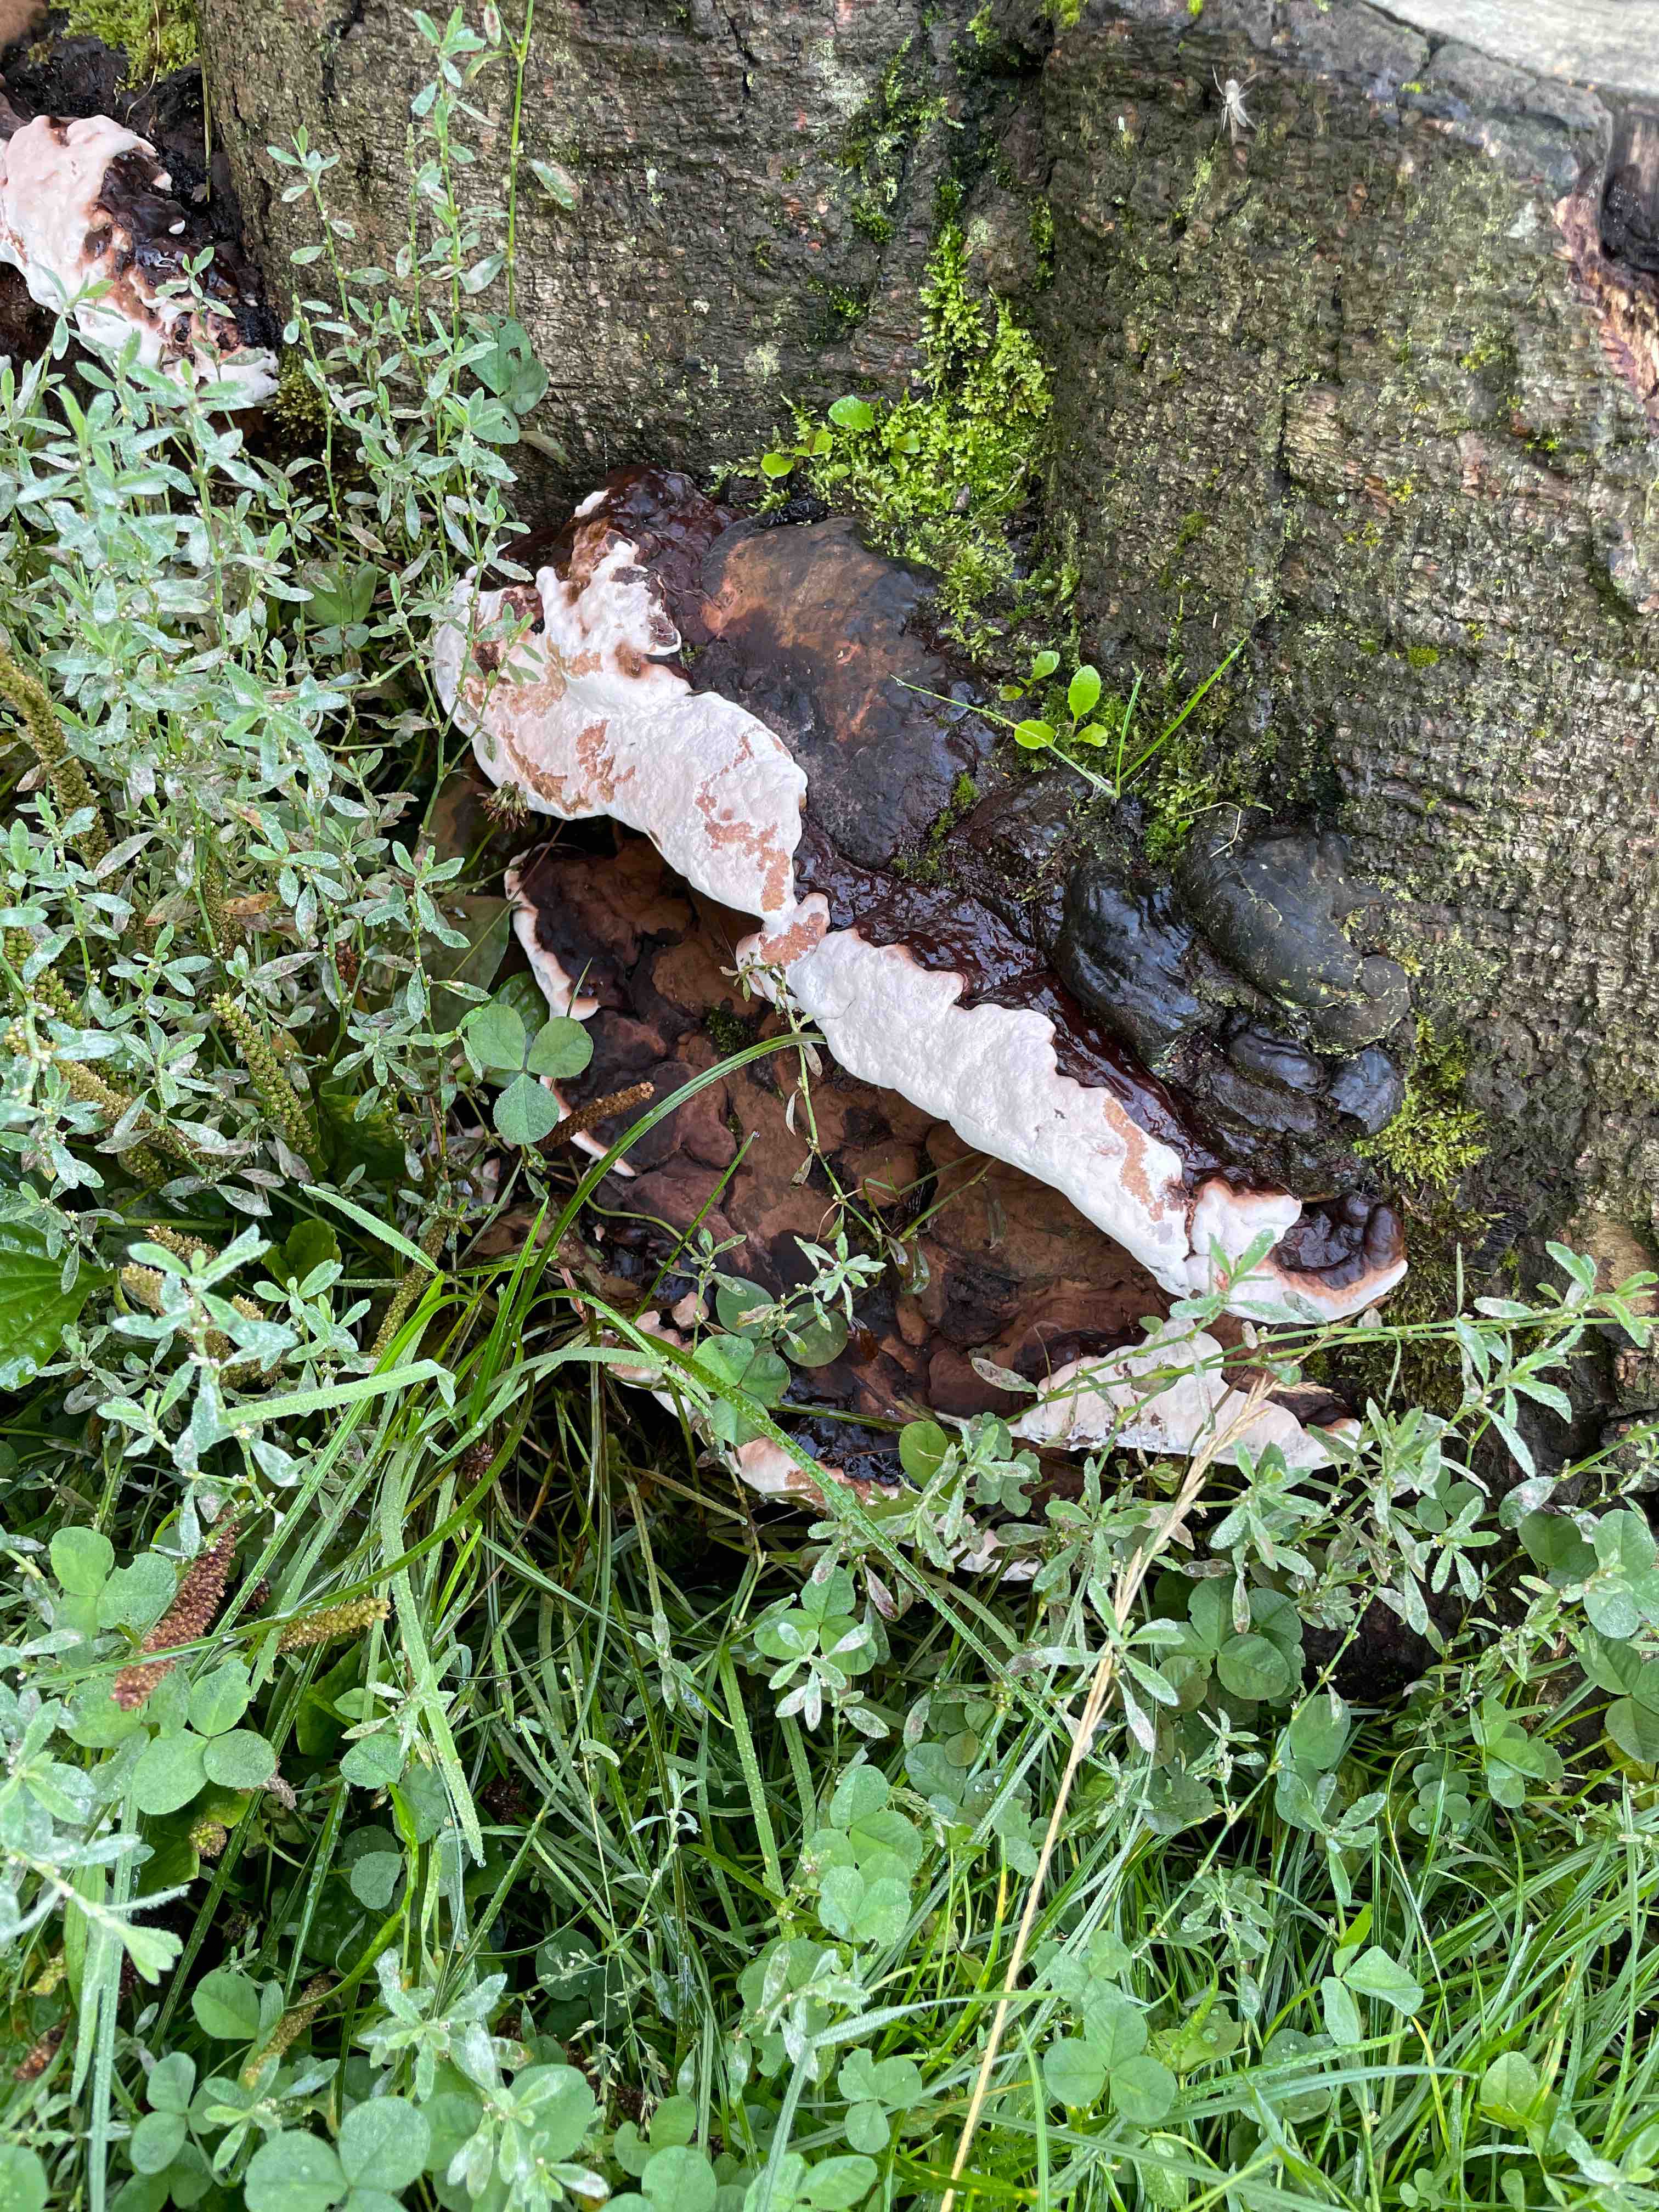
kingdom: Fungi
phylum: Basidiomycota
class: Agaricomycetes
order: Polyporales
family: Polyporaceae
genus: Ganoderma
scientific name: Ganoderma applanatum
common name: flad lakporesvamp
